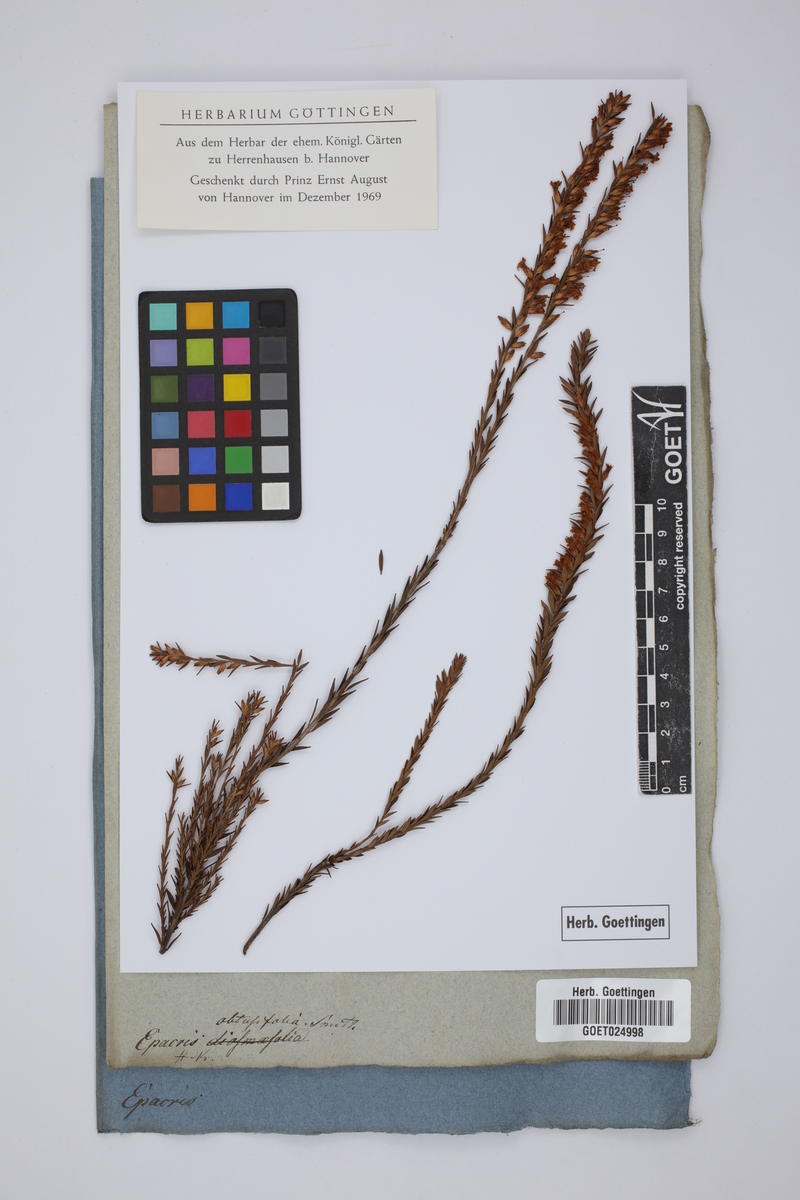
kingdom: Plantae
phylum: Tracheophyta
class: Magnoliopsida
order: Ericales
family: Ericaceae
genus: Epacris
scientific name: Epacris obtusifolia
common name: Blunt-leaf australian-heath
